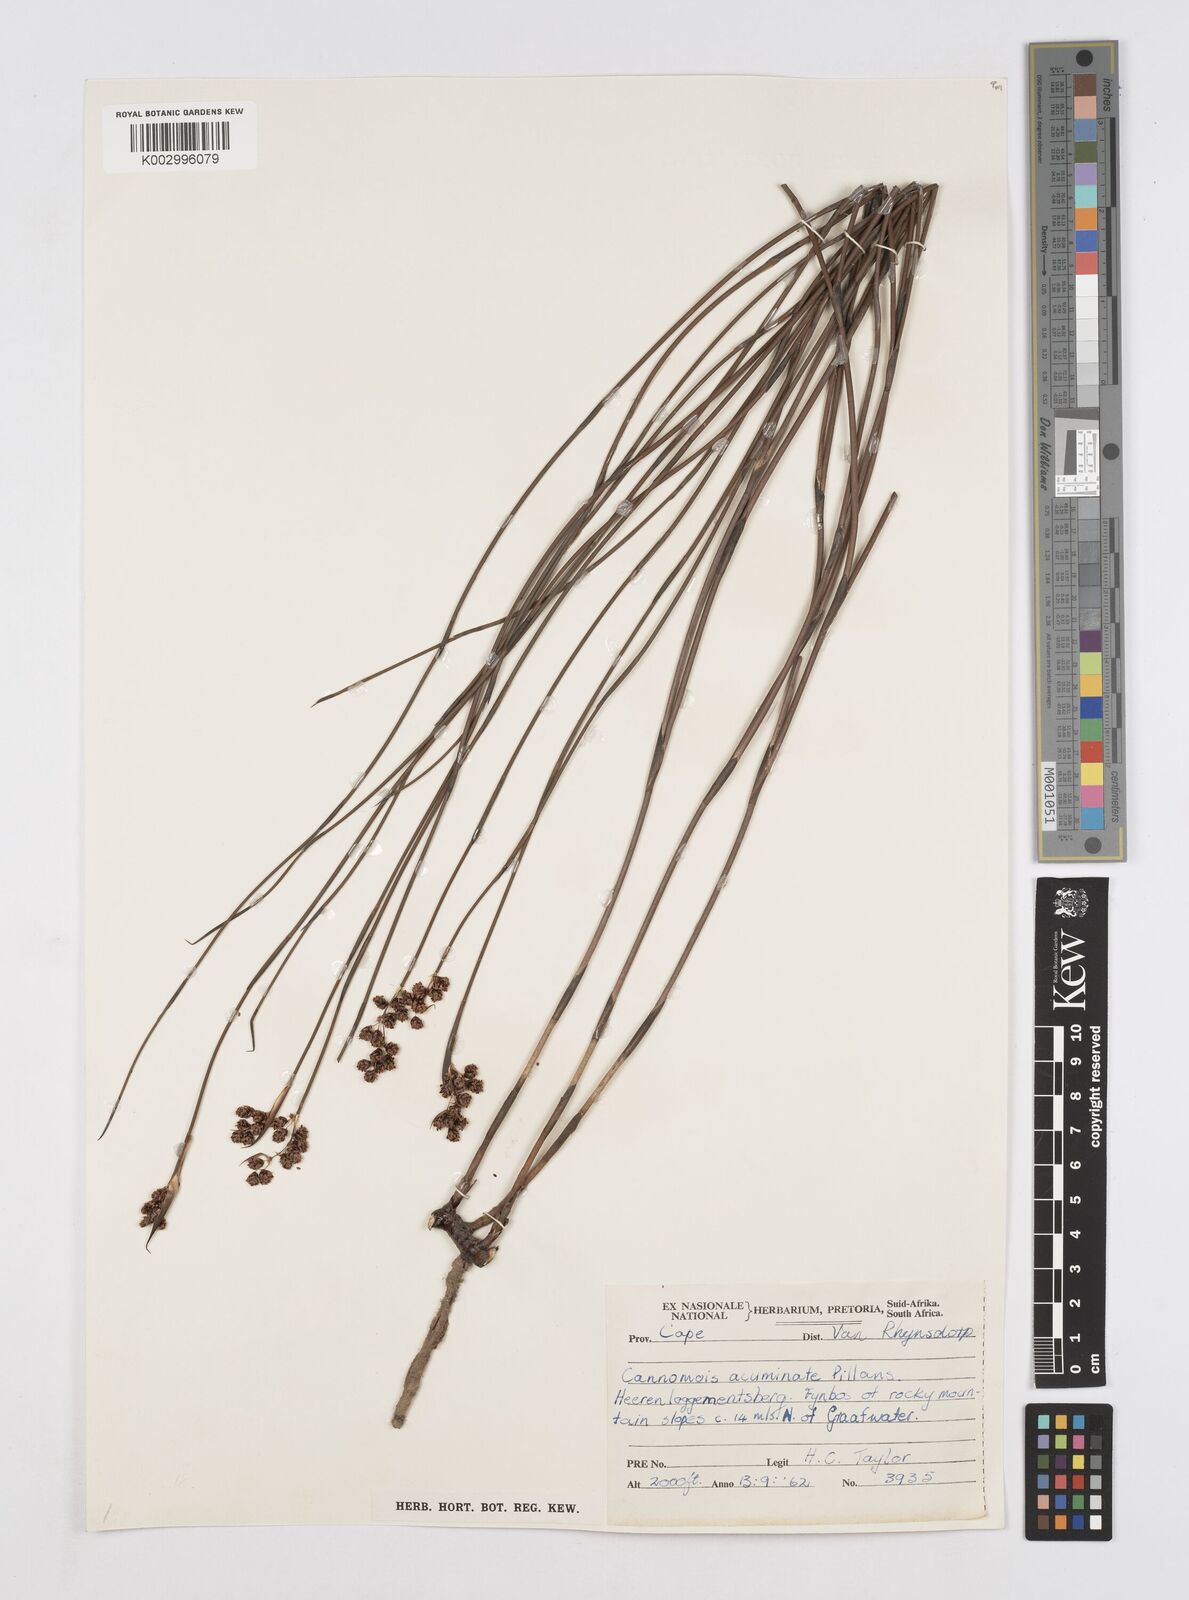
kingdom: Plantae
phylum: Tracheophyta
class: Liliopsida
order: Poales
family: Restionaceae
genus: Cannomois
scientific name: Cannomois parviflora
